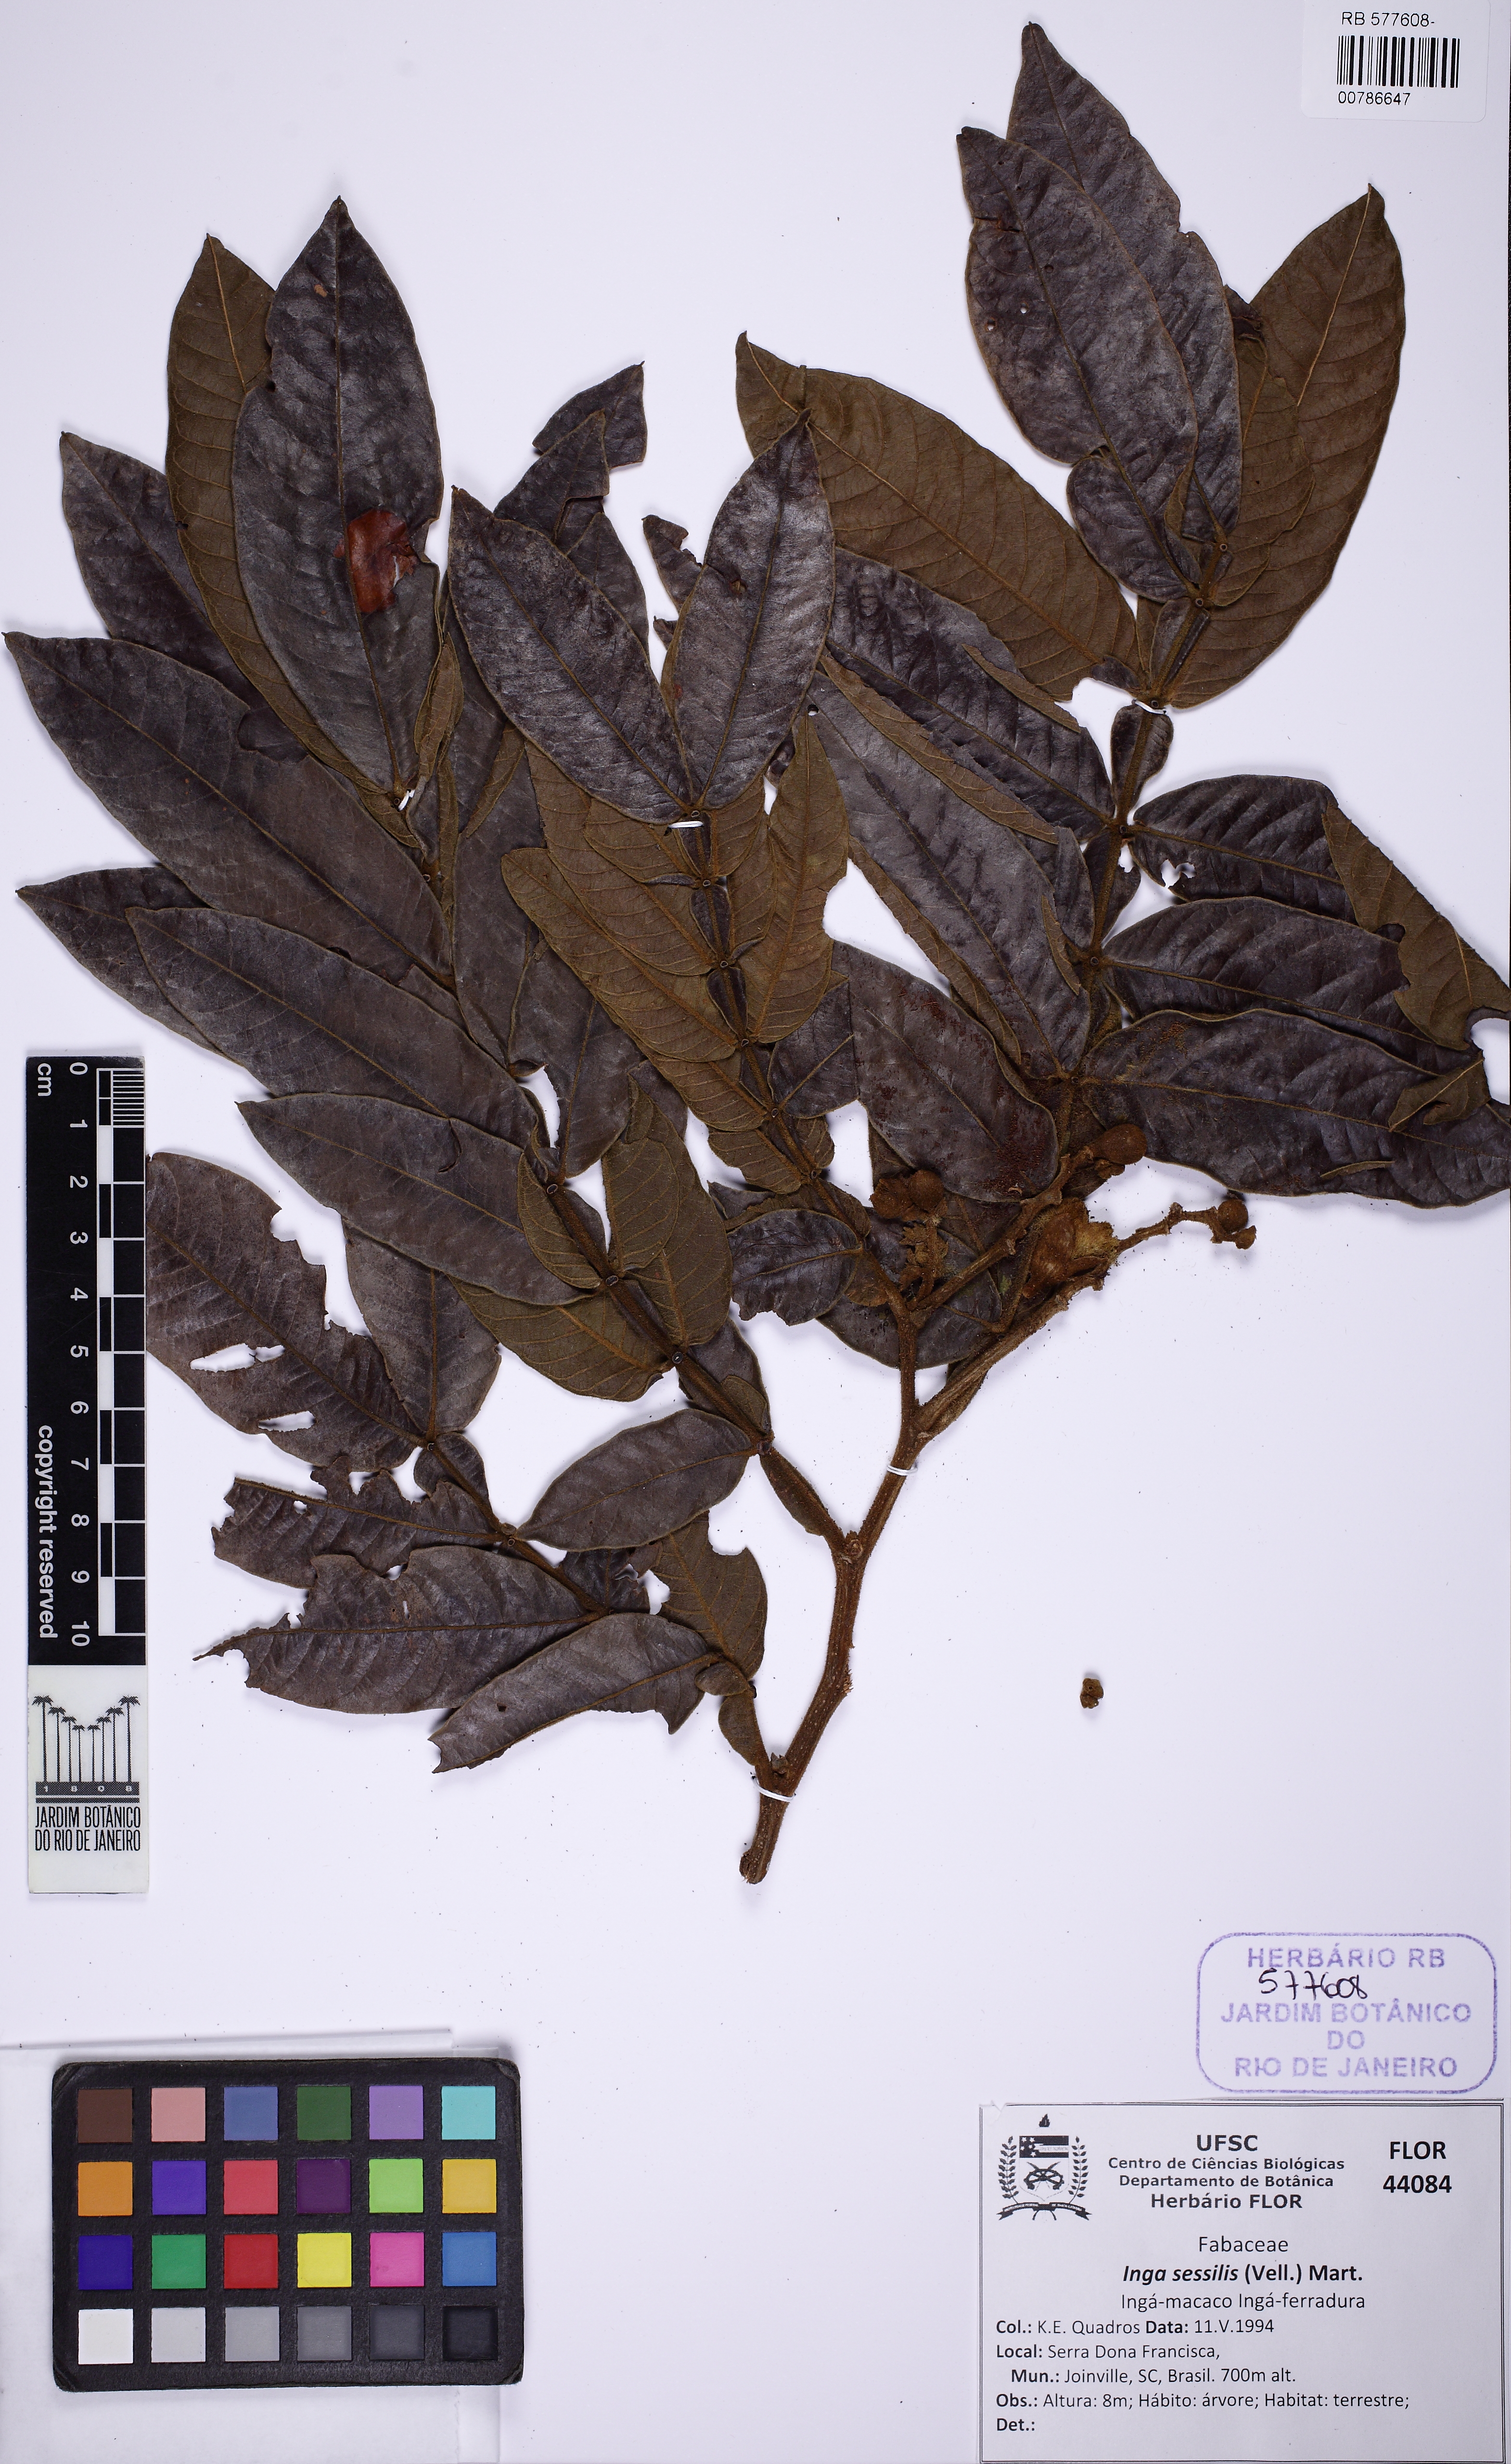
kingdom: Plantae
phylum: Tracheophyta
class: Magnoliopsida
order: Fabales
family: Fabaceae
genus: Inga
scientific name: Inga sessilis
